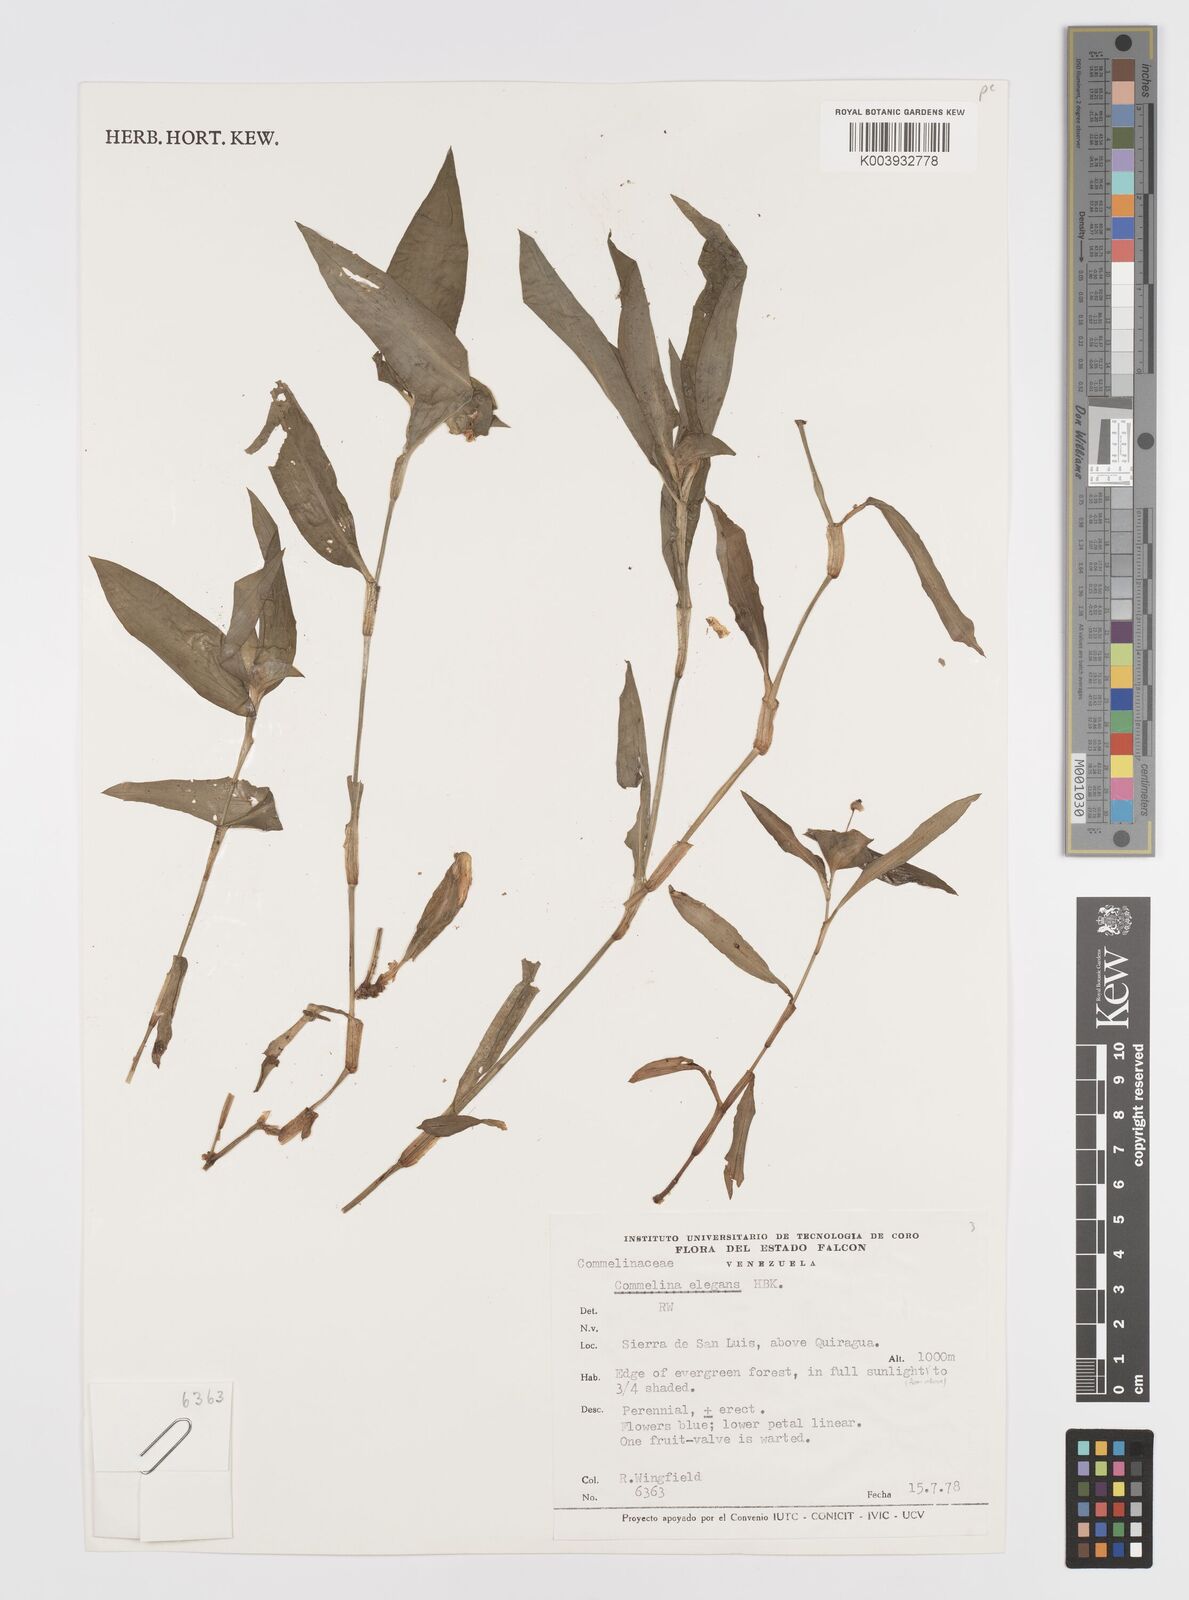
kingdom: Plantae
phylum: Tracheophyta
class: Liliopsida
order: Commelinales
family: Commelinaceae
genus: Commelina
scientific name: Commelina virginica
